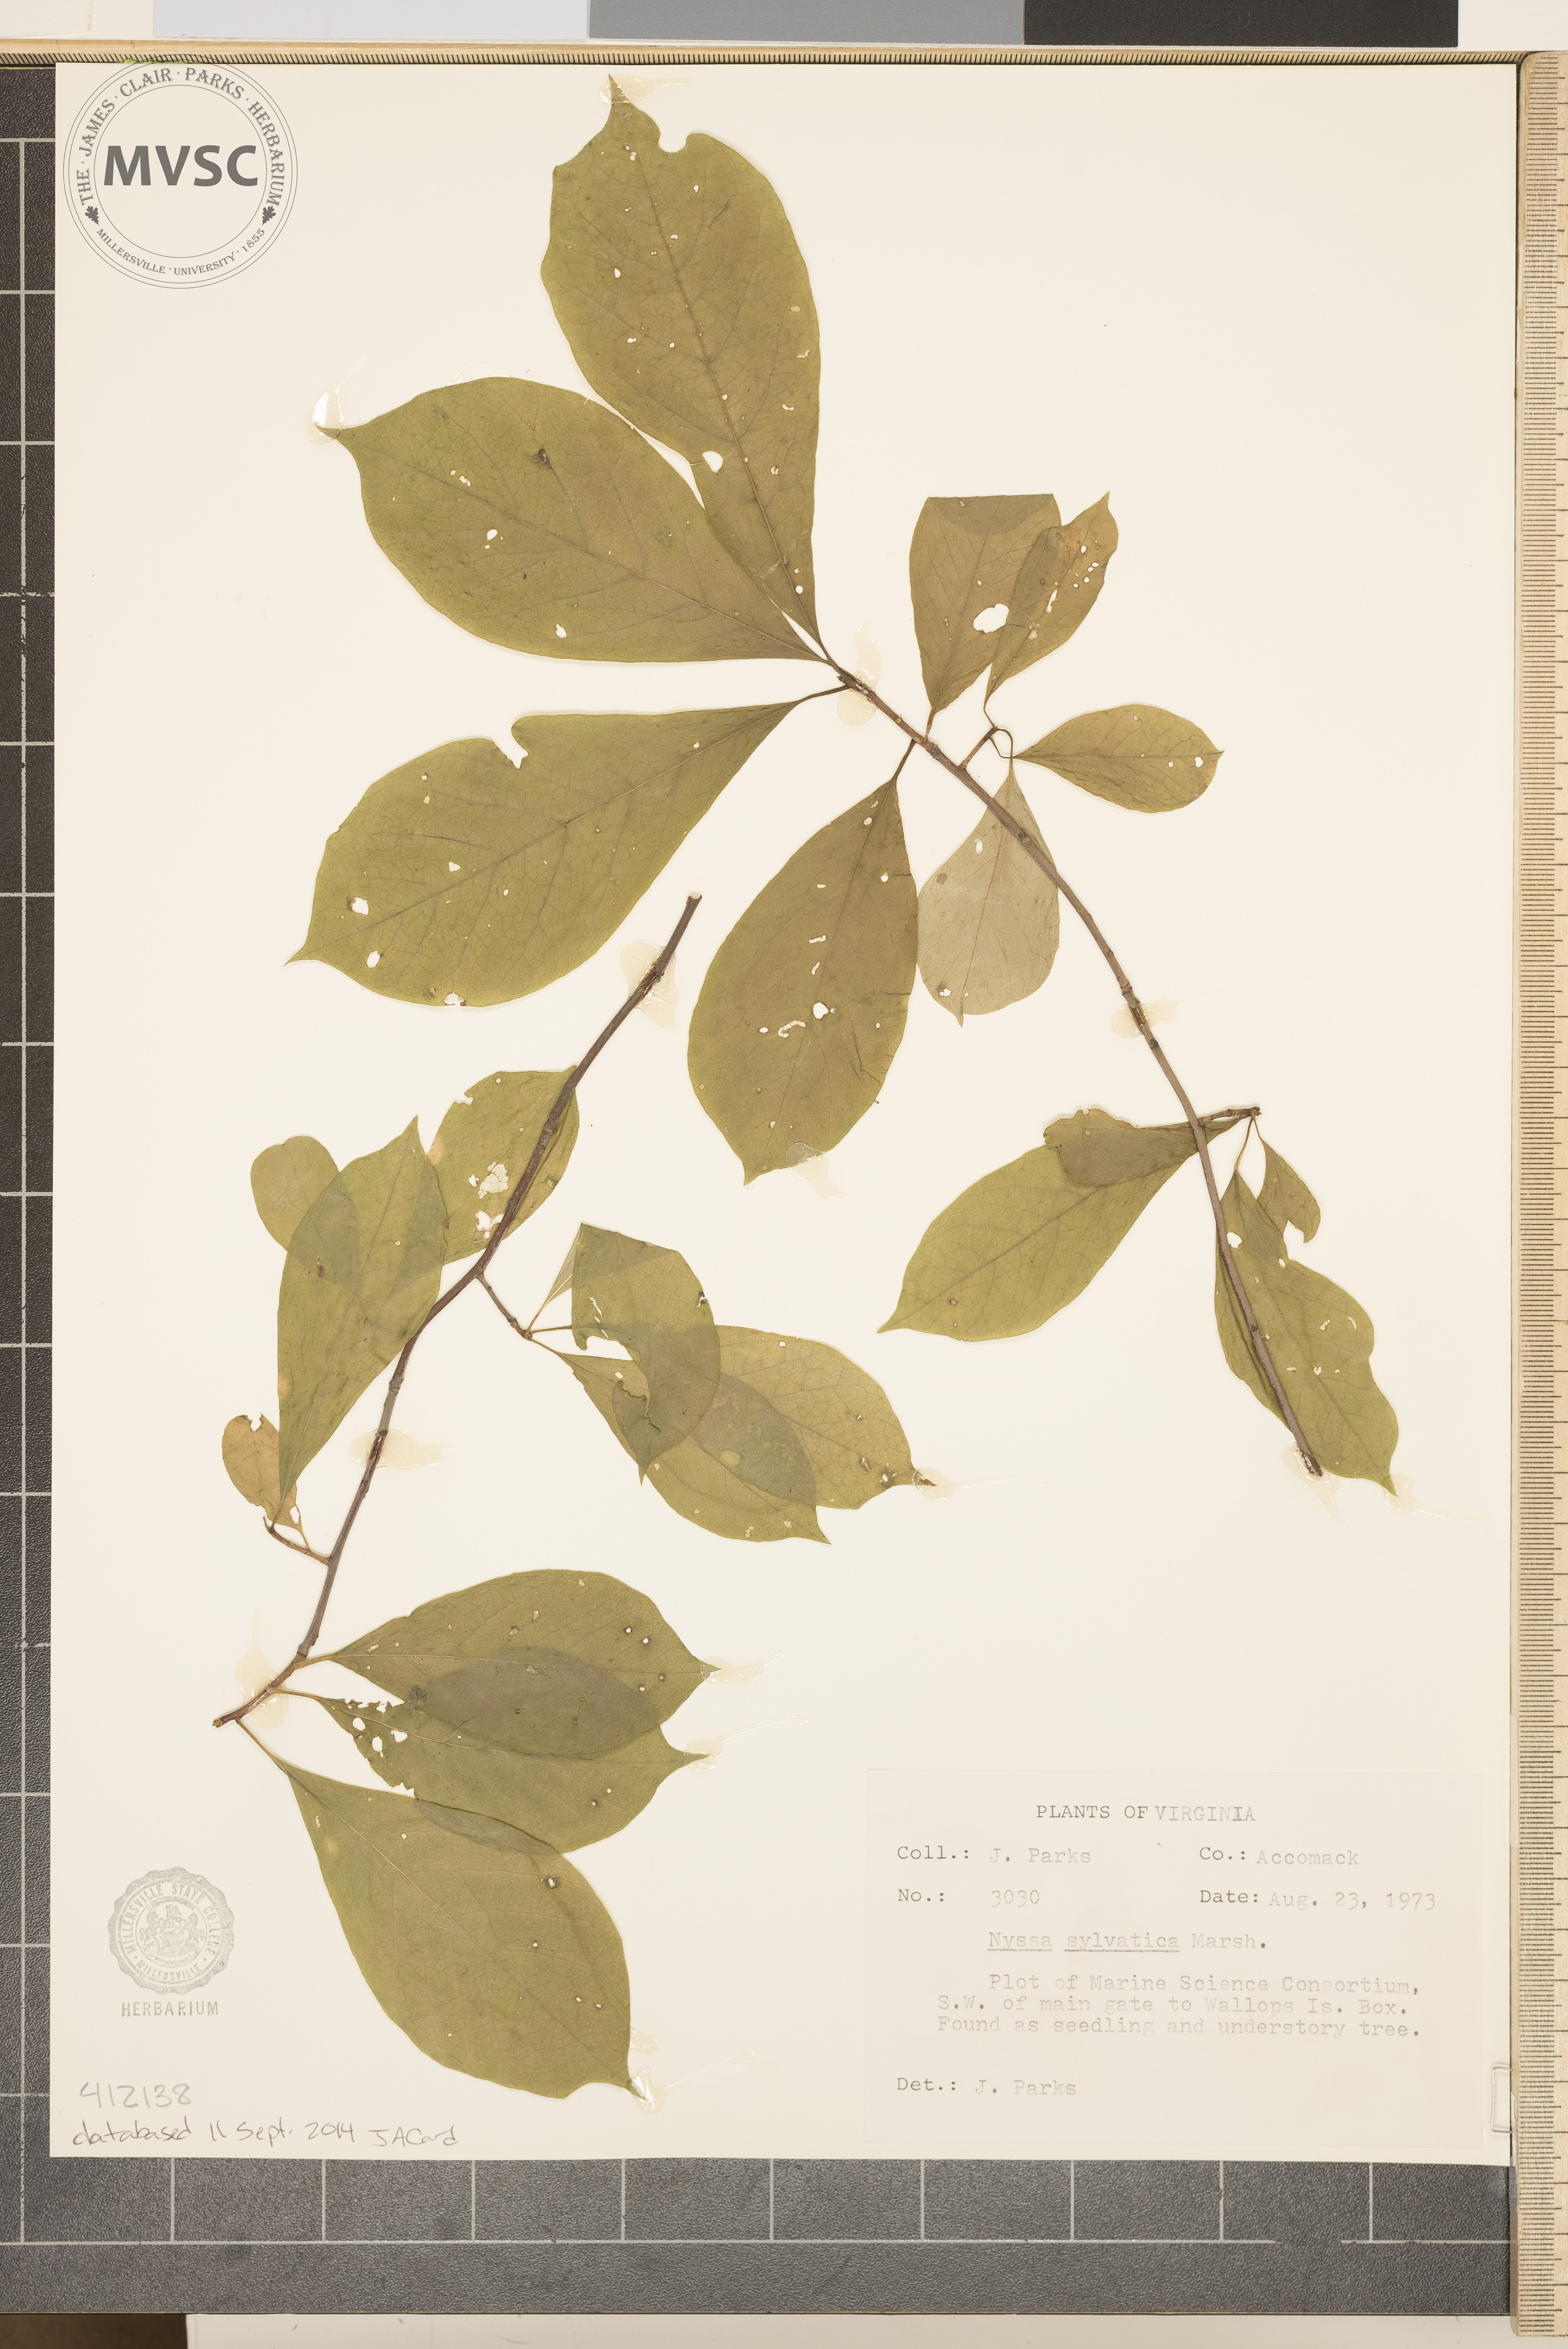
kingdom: Plantae
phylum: Tracheophyta
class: Magnoliopsida
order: Cornales
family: Nyssaceae
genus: Nyssa
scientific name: Nyssa sylvatica
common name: Black tupelo
